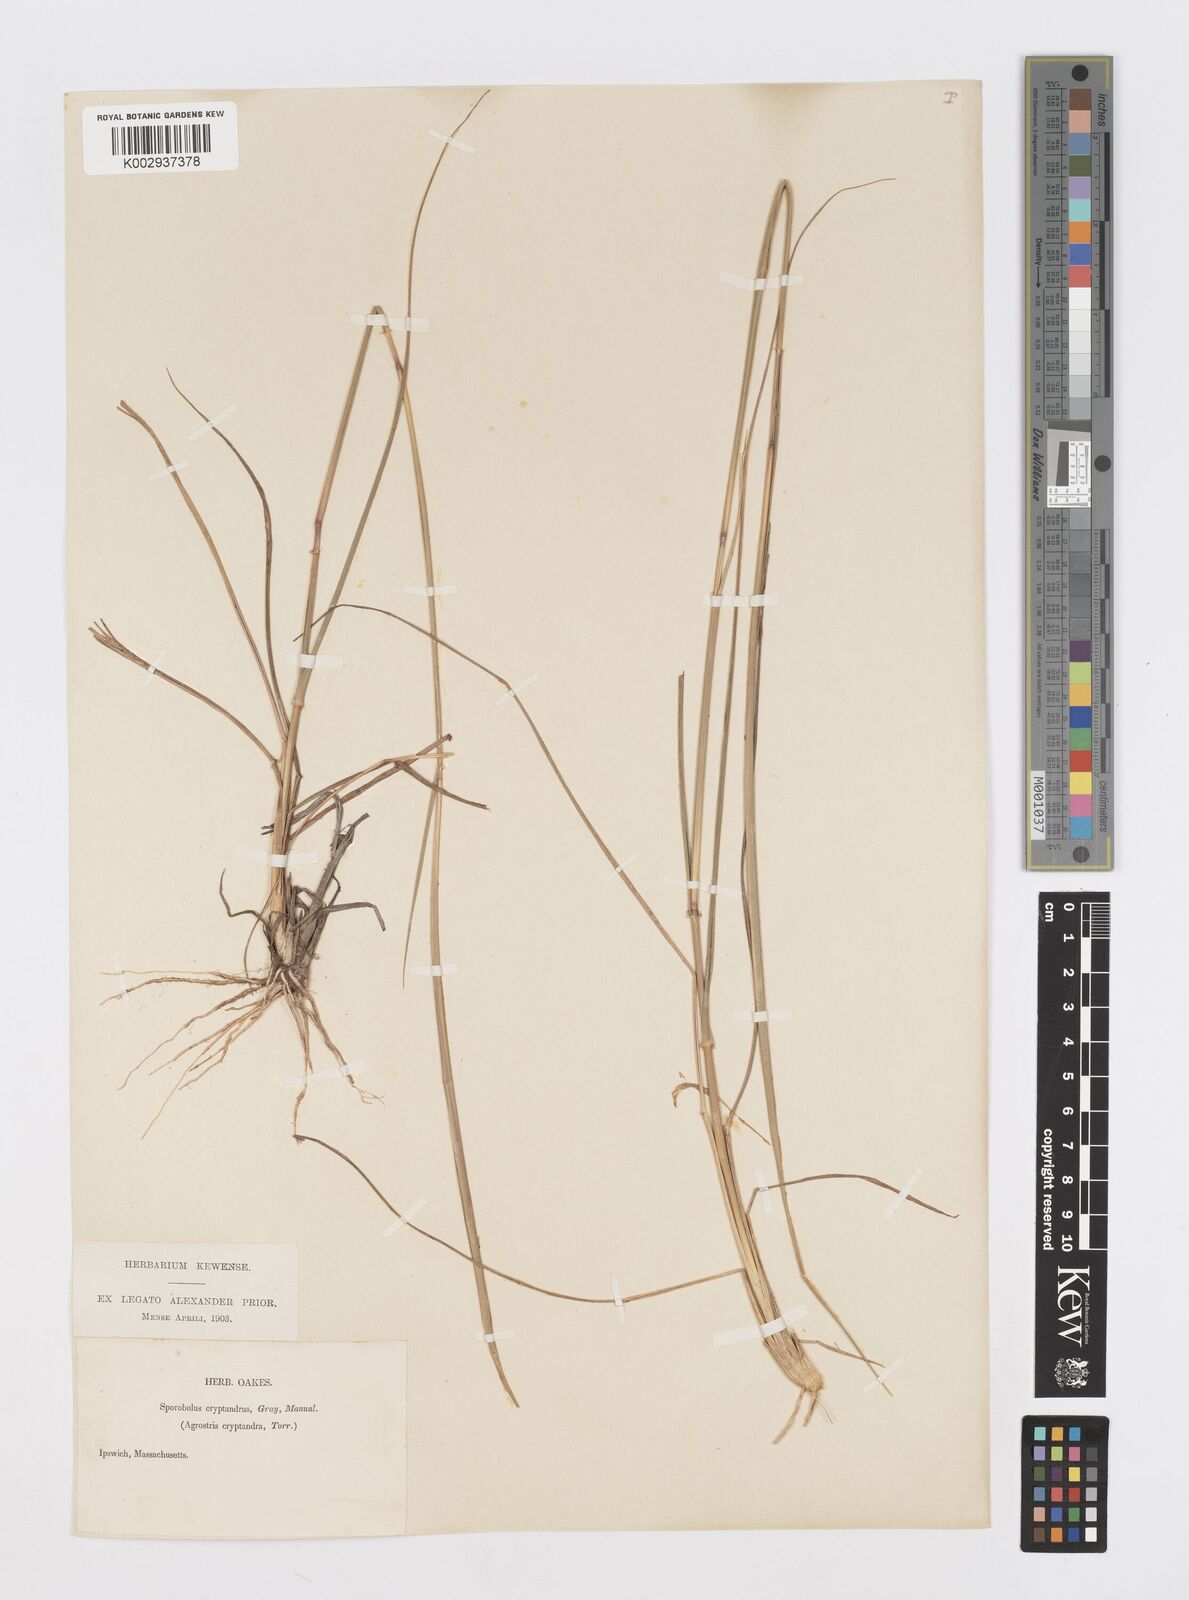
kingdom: Plantae
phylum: Tracheophyta
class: Liliopsida
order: Poales
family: Poaceae
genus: Sporobolus
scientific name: Sporobolus cryptandrus
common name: Sand dropseed
